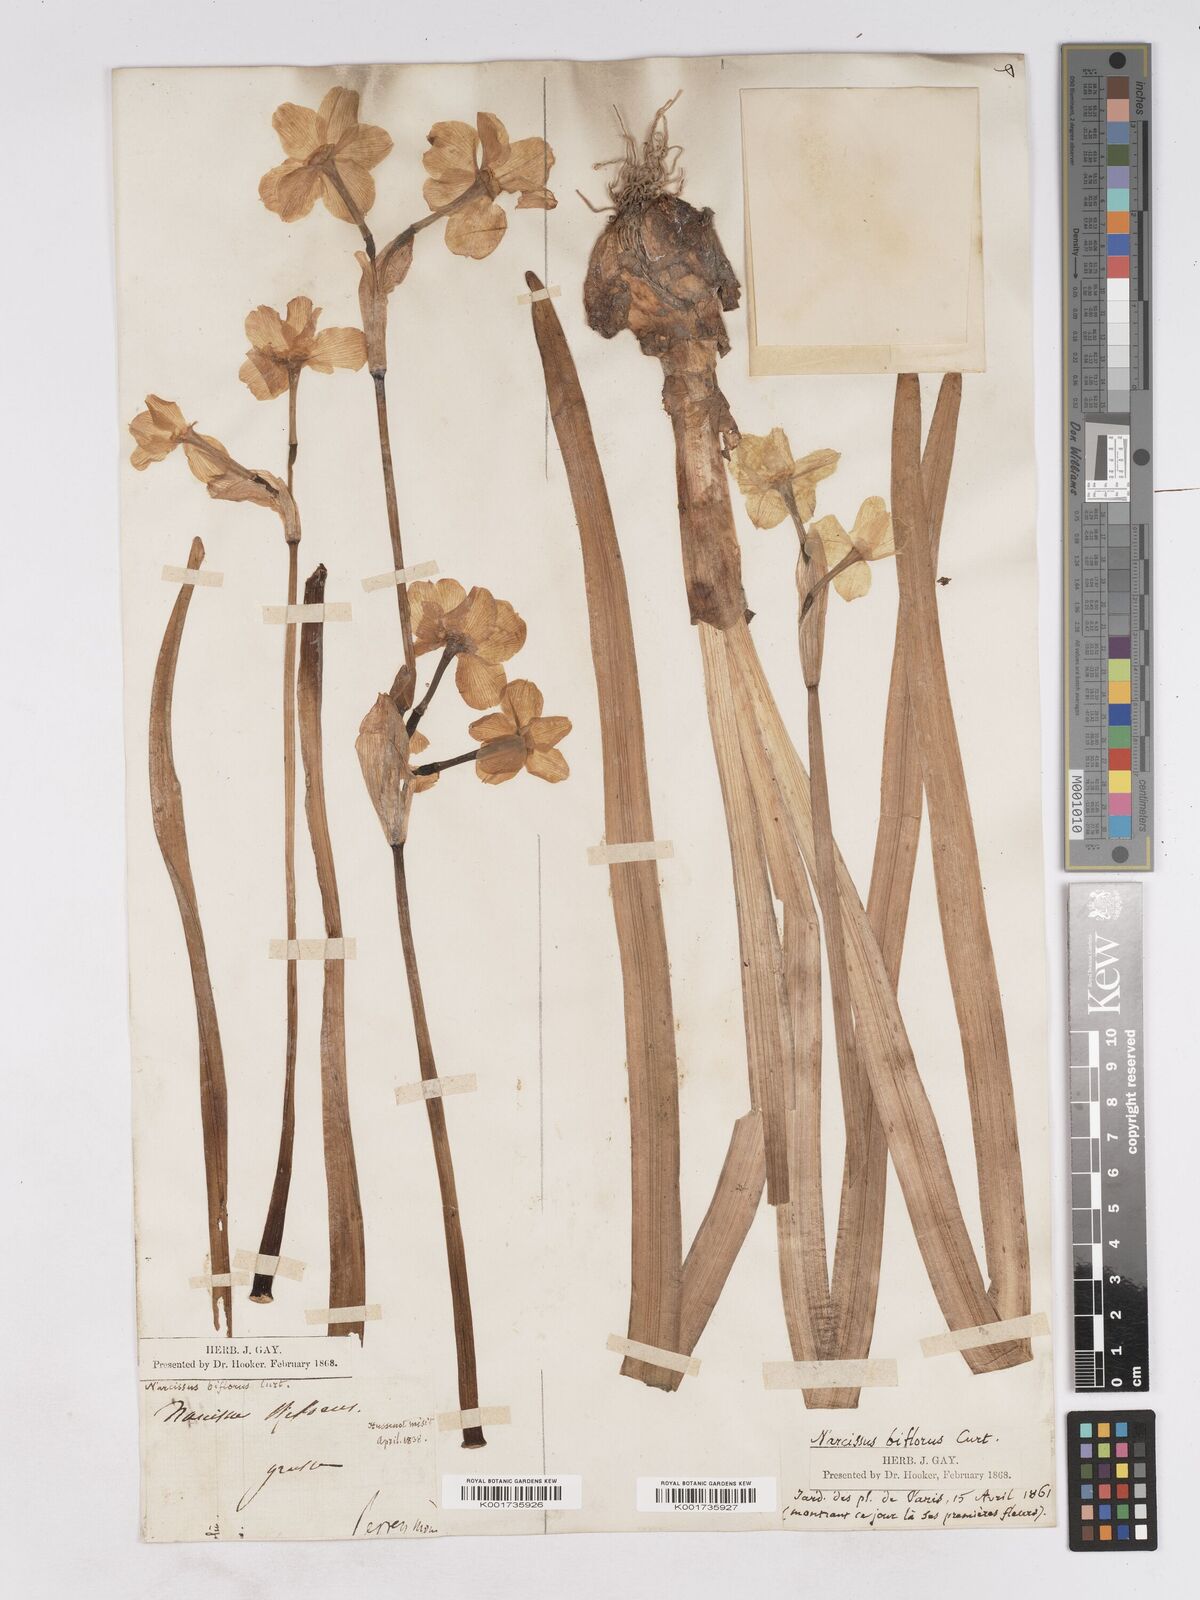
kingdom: Plantae
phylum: Tracheophyta
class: Liliopsida
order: Asparagales
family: Amaryllidaceae
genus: Narcissus
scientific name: Narcissus medioluteus
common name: Primrose-peerless
